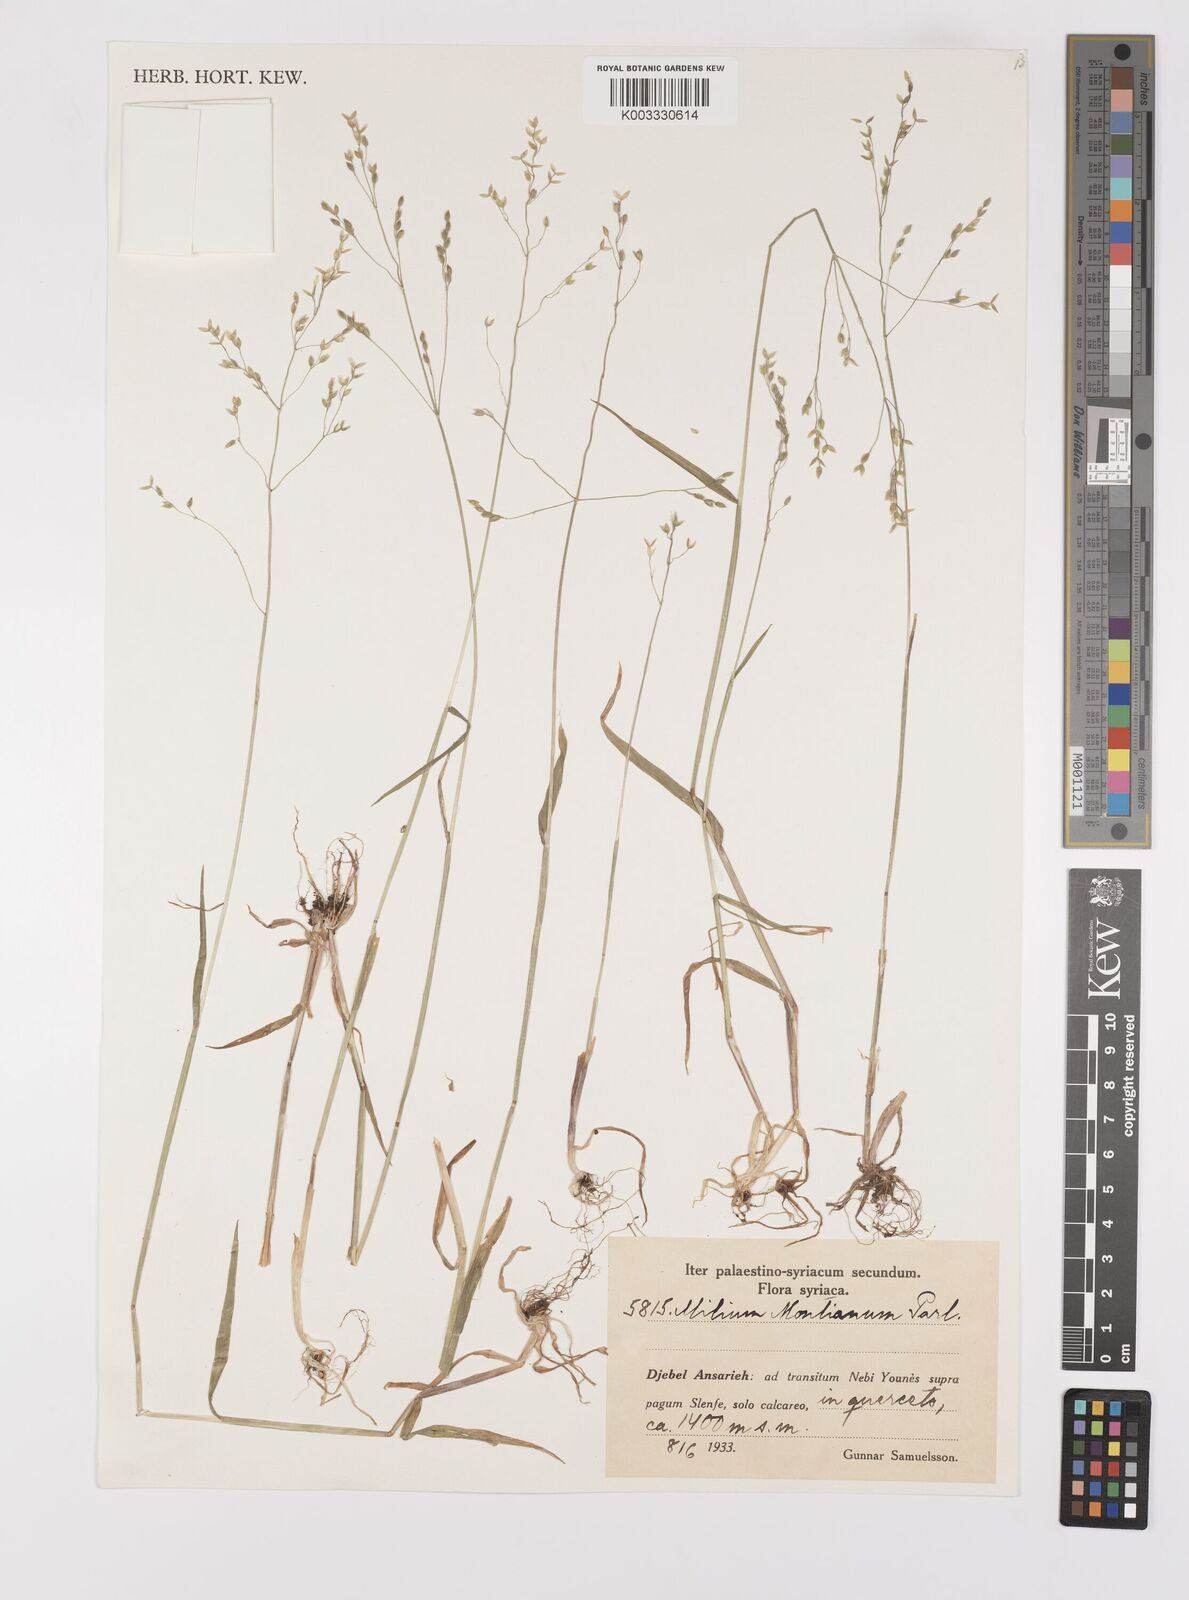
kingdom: Plantae
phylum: Tracheophyta
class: Liliopsida
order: Poales
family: Poaceae
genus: Milium
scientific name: Milium vernale
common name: Early millet
